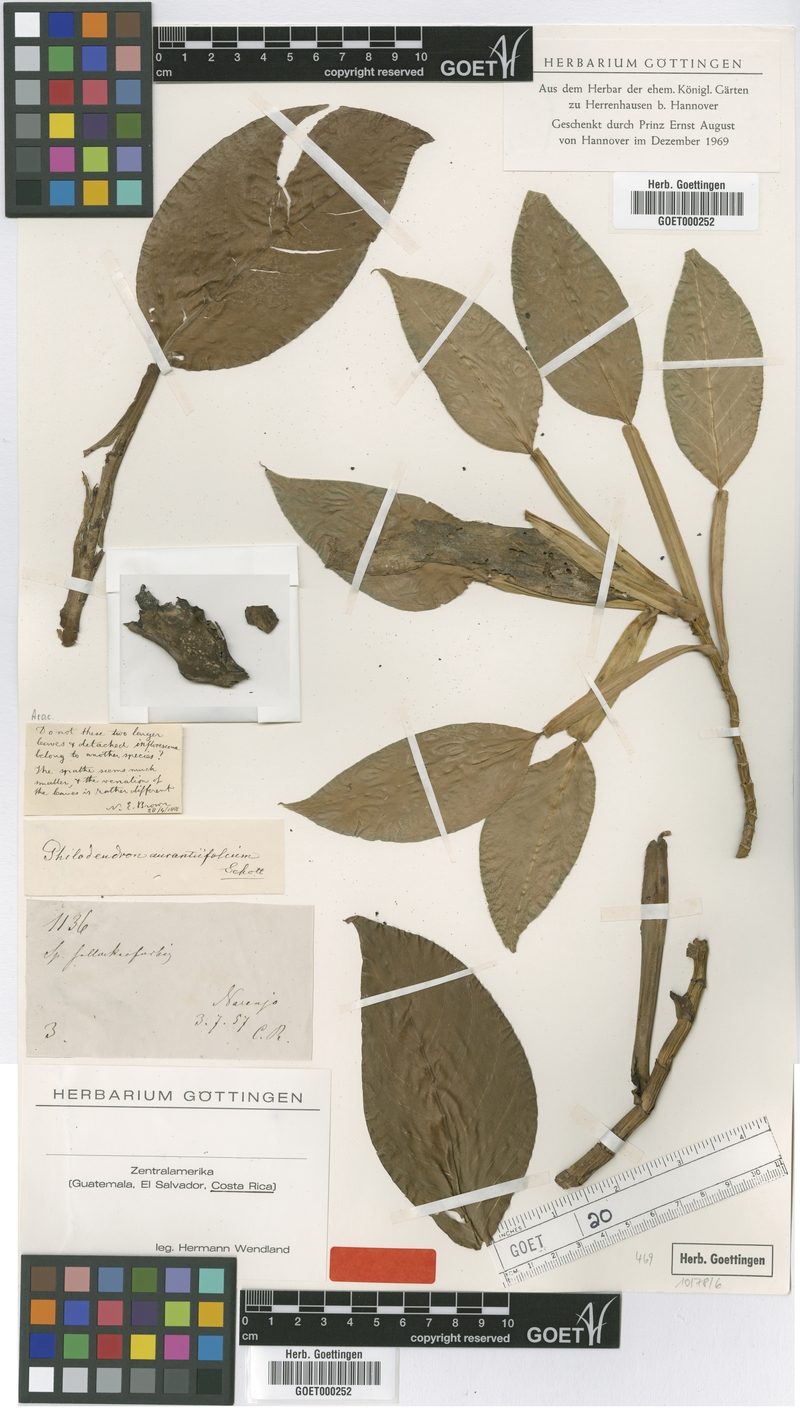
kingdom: Plantae
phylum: Tracheophyta
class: Liliopsida
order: Alismatales
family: Araceae
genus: Philodendron
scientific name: Philodendron aurantiifolium
